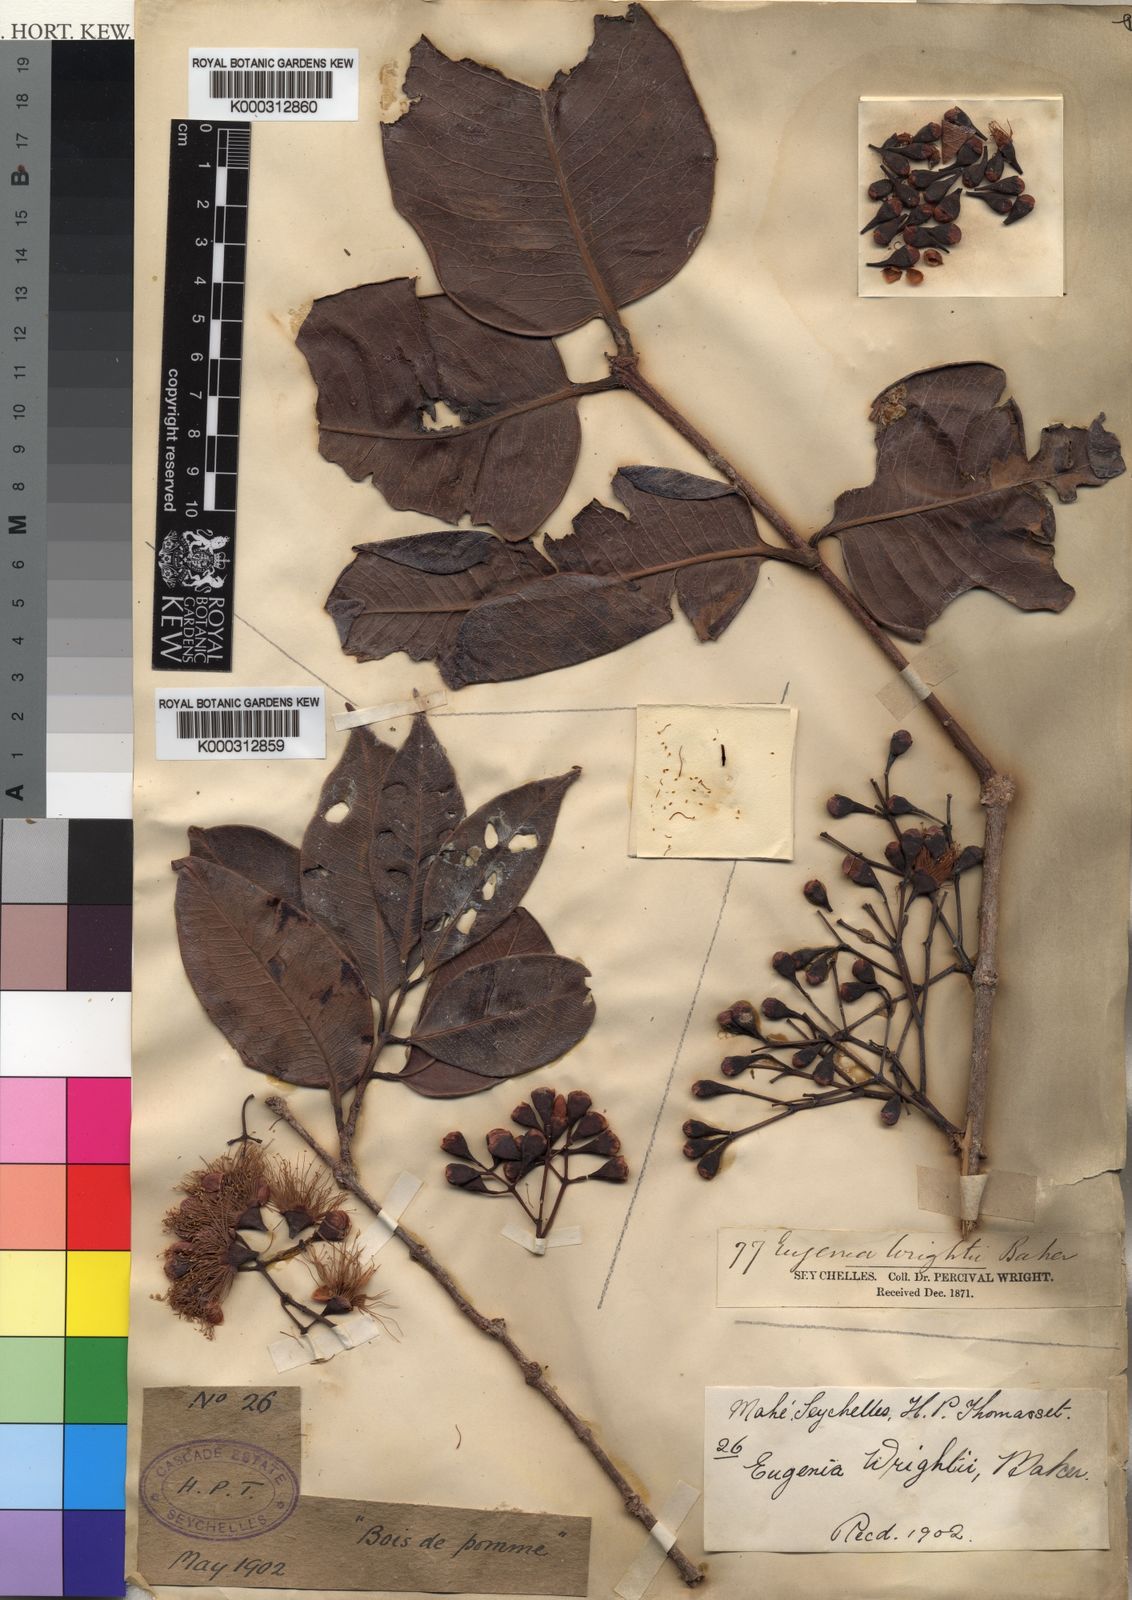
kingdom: Plantae
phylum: Tracheophyta
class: Magnoliopsida
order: Myrtales
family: Myrtaceae
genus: Syzygium
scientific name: Syzygium wrightii
